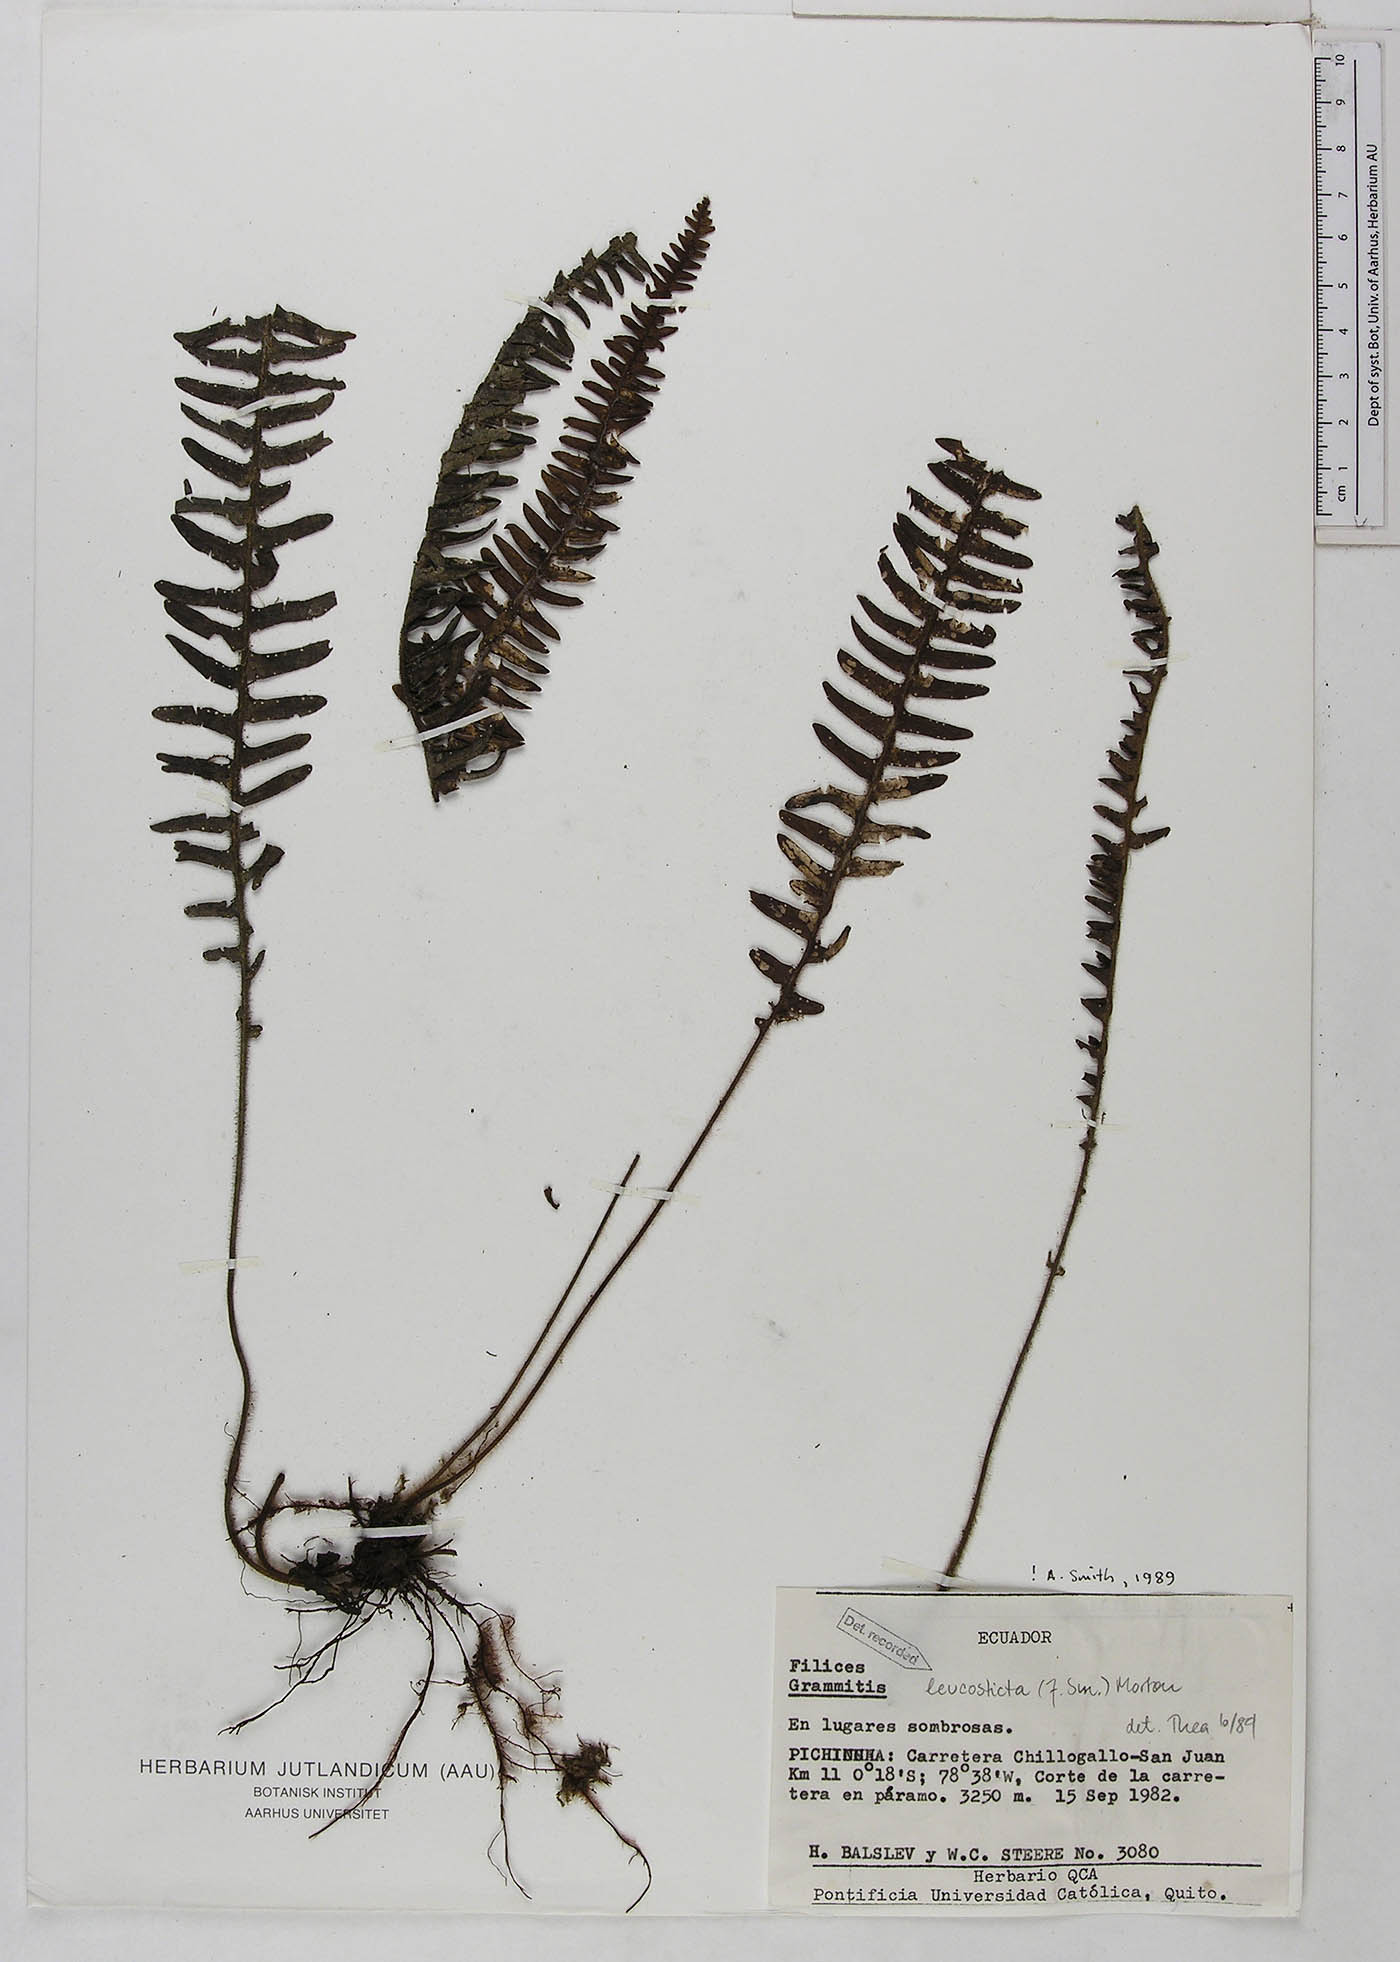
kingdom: Plantae
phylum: Tracheophyta
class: Polypodiopsida
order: Polypodiales
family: Polypodiaceae
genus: Mycopteris
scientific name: Mycopteris semihirsuta
